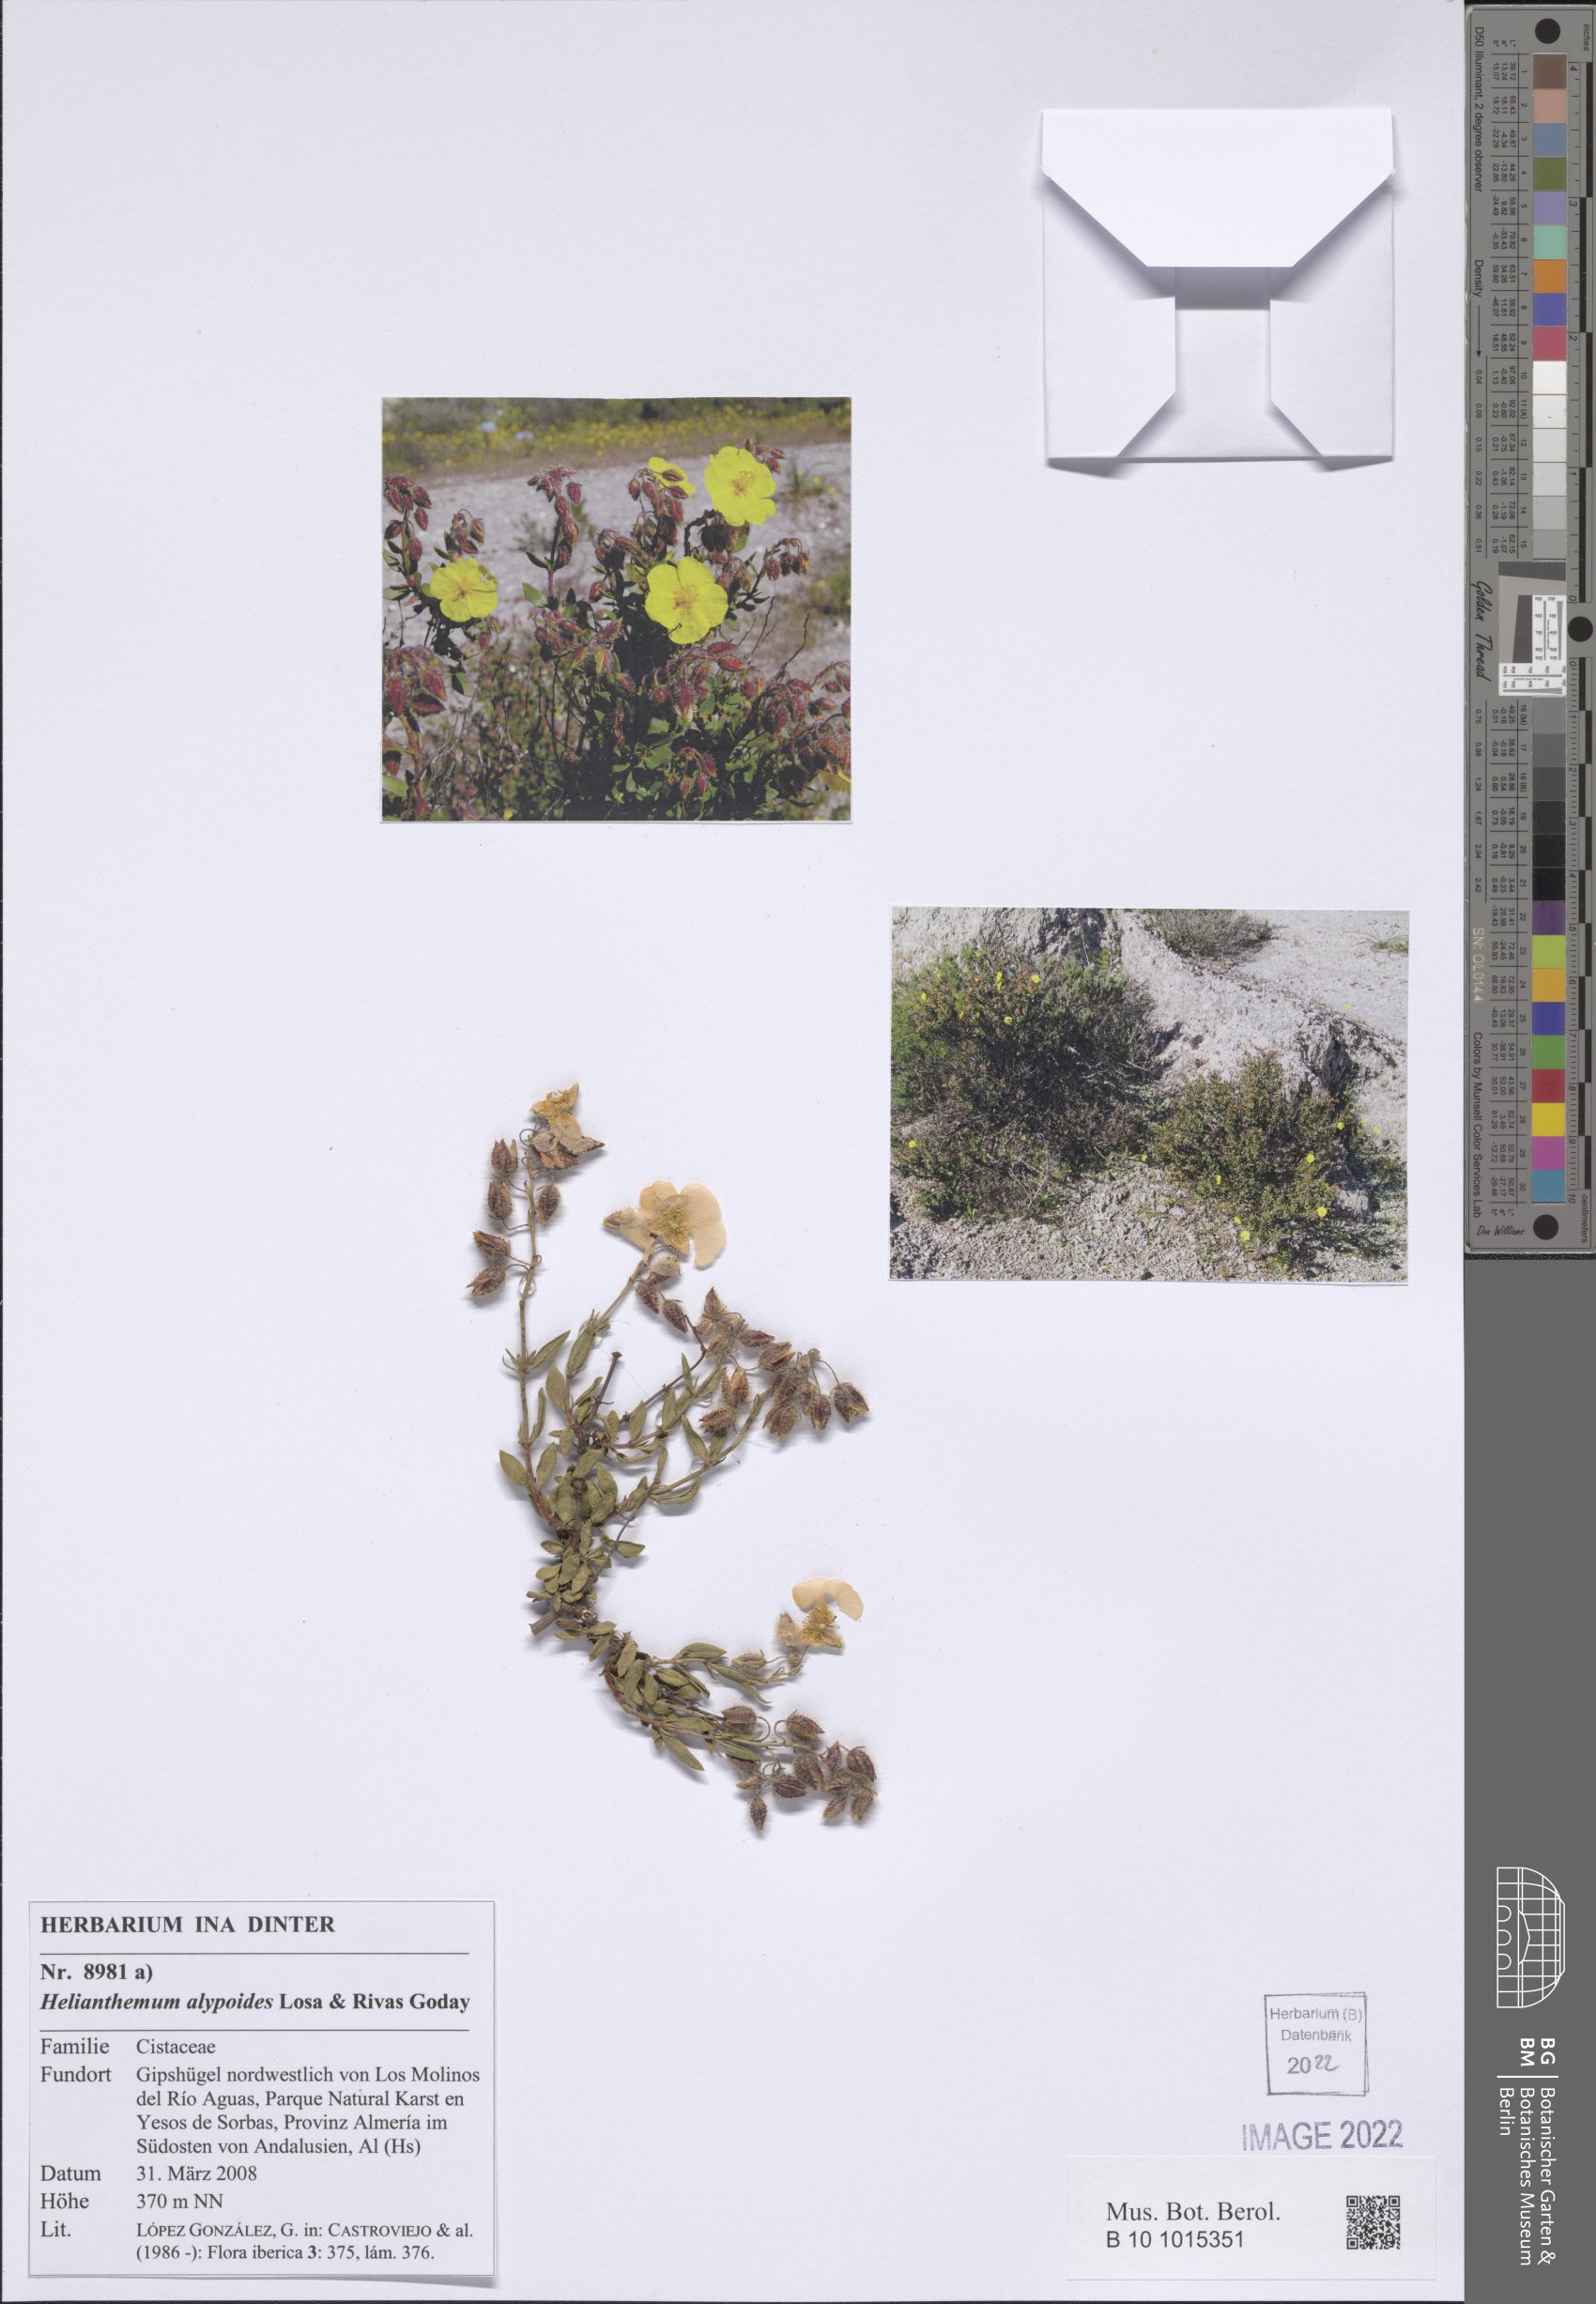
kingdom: Plantae
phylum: Tracheophyta
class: Magnoliopsida
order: Malvales
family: Cistaceae
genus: Helianthemum
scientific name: Helianthemum alypoides
